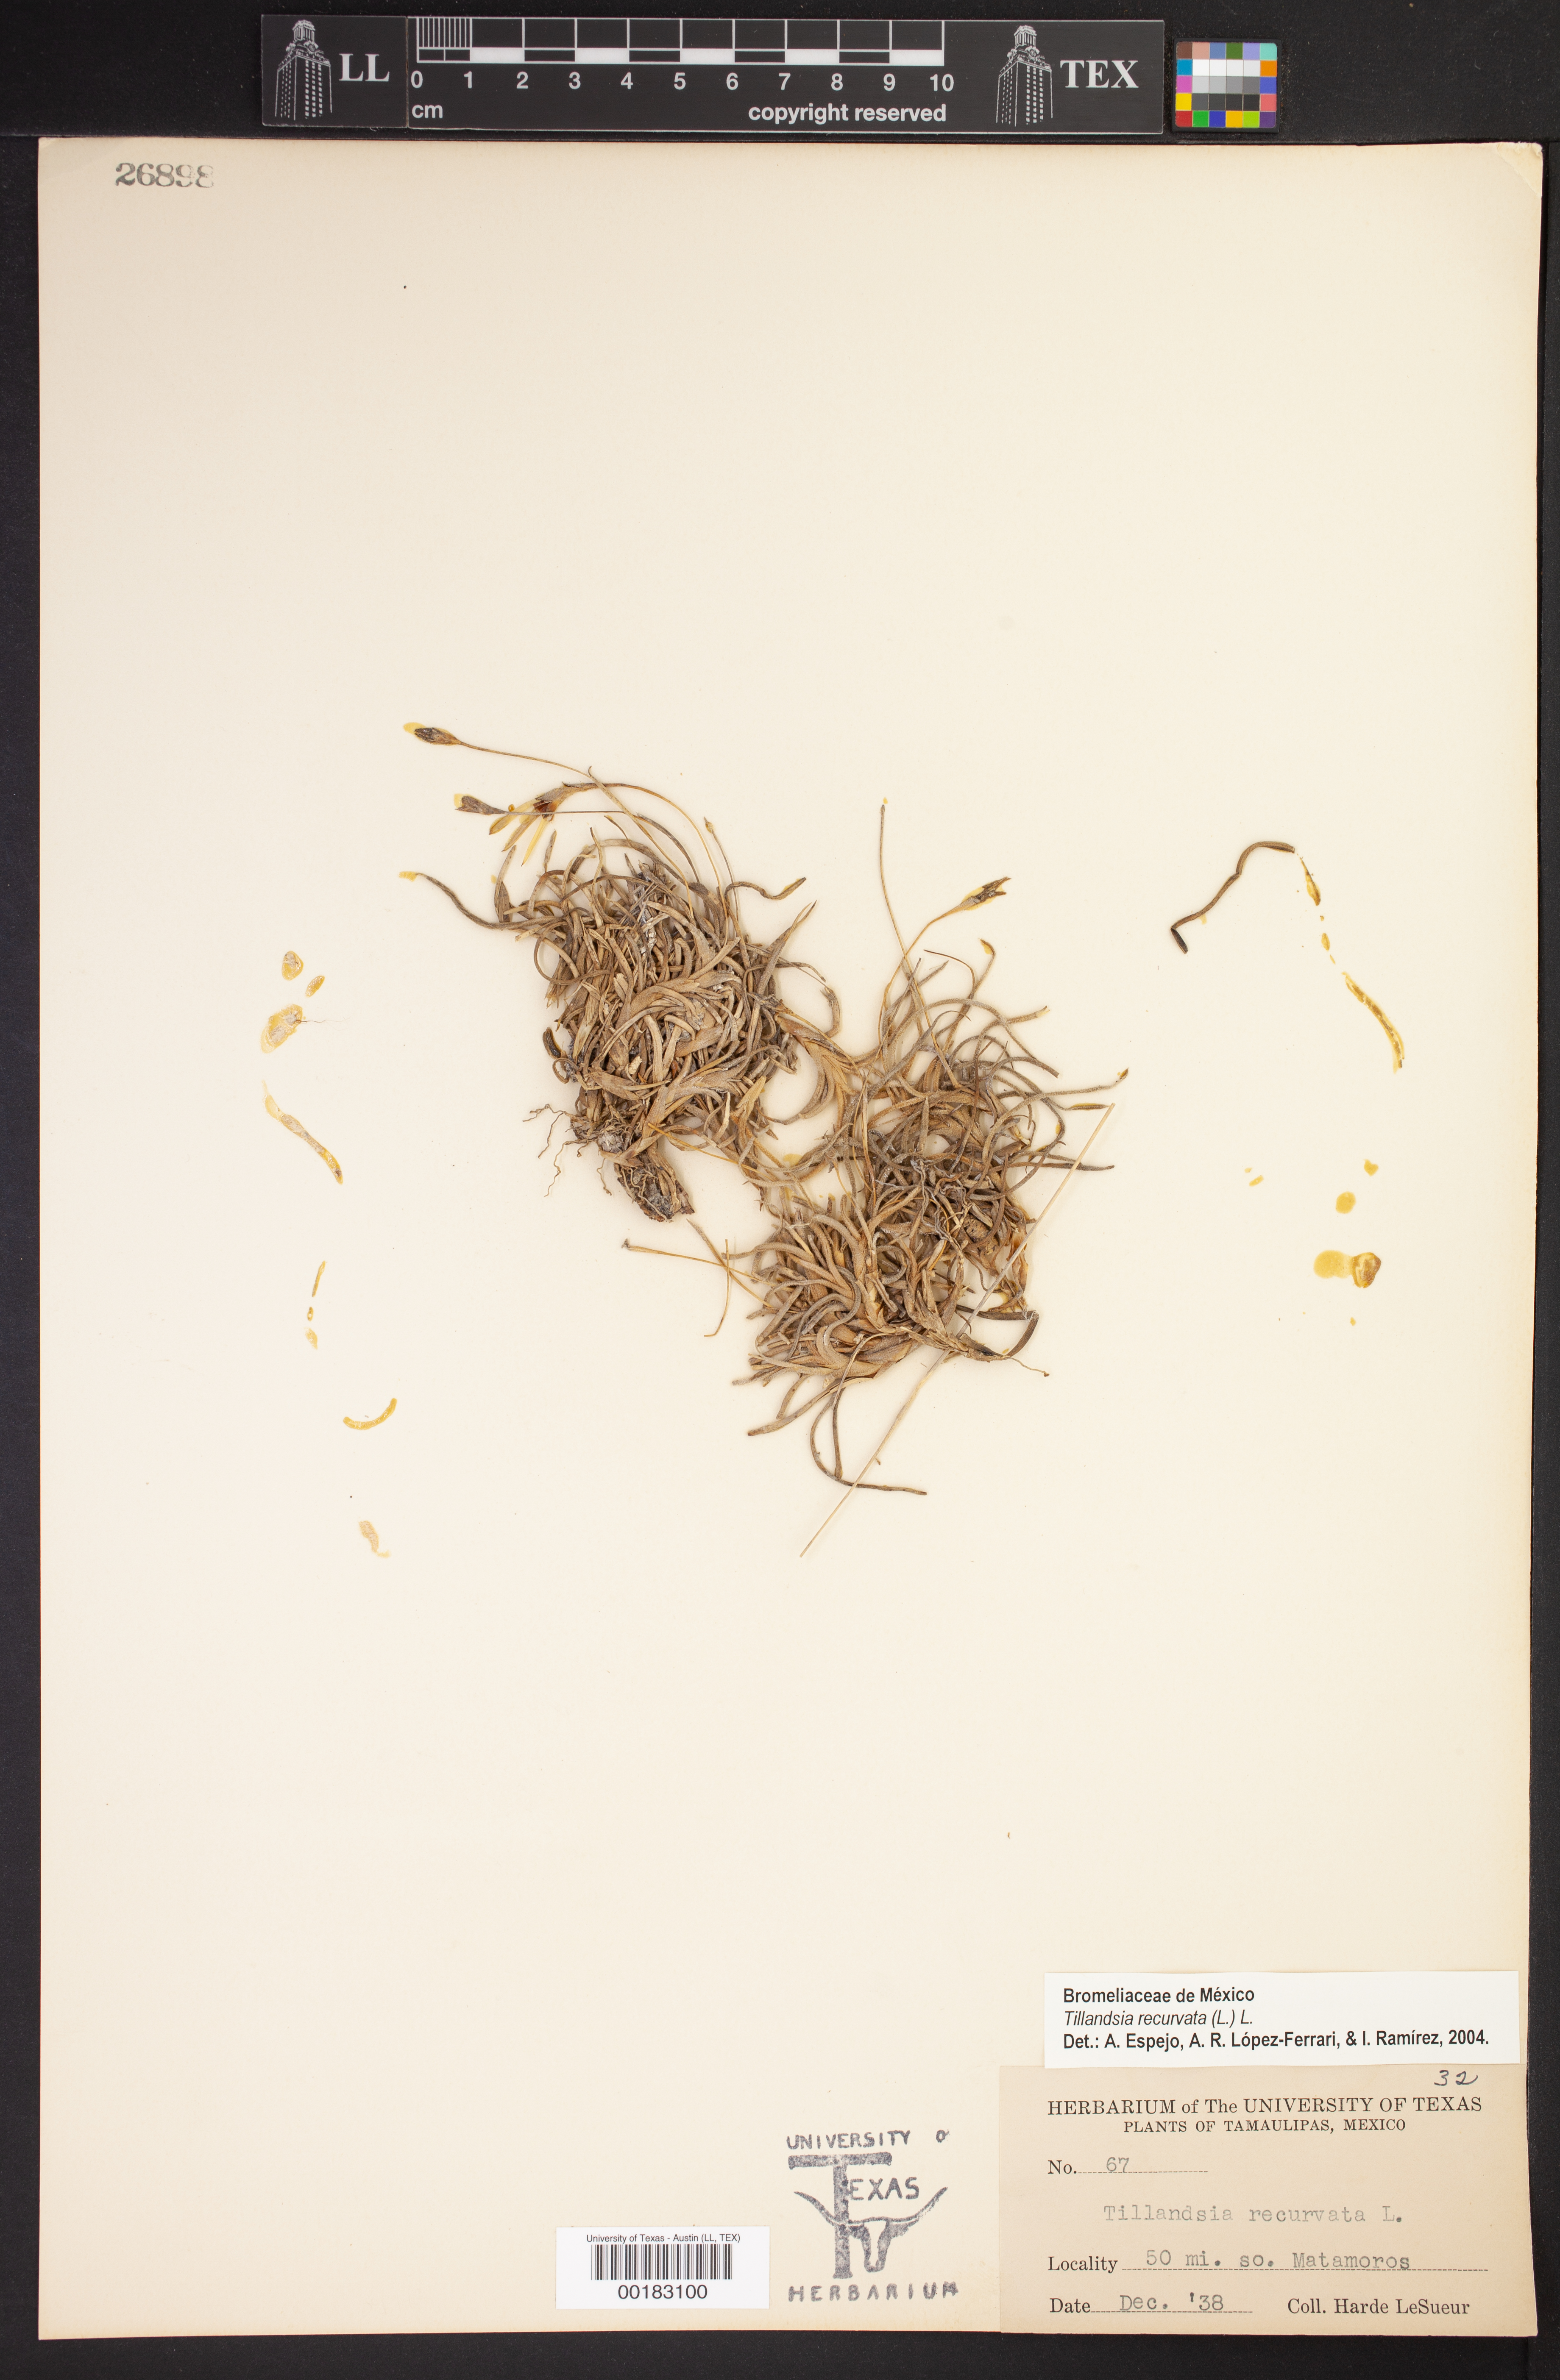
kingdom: Plantae
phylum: Tracheophyta
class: Liliopsida
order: Poales
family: Bromeliaceae
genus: Tillandsia
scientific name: Tillandsia recurvata
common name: Small ballmoss
